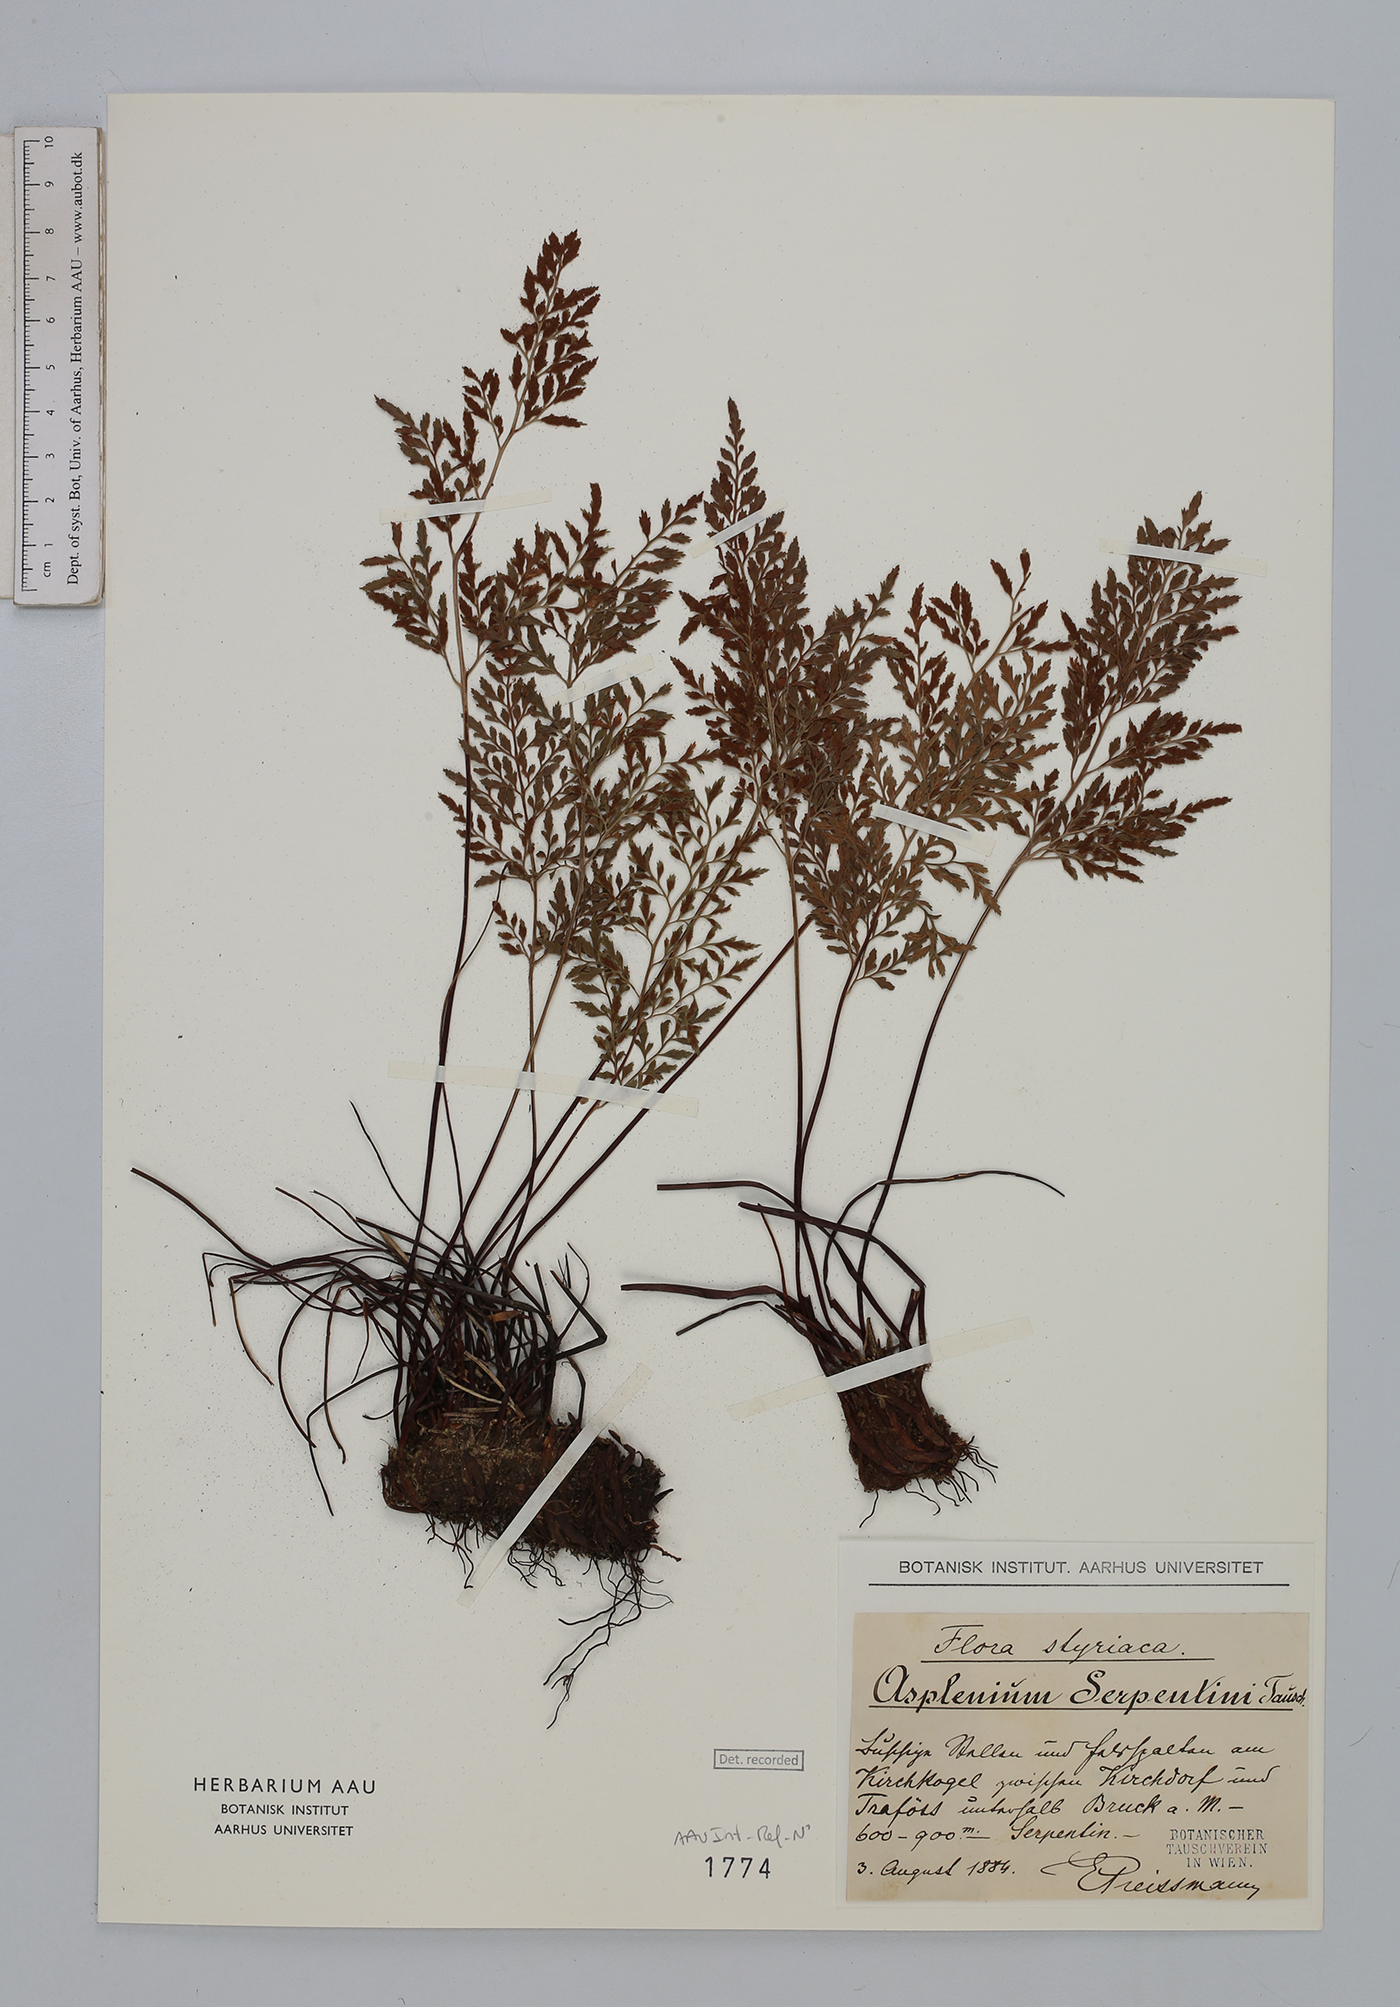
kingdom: Plantae
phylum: Tracheophyta
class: Polypodiopsida
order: Polypodiales
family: Aspleniaceae
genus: Asplenium
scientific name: Asplenium cuneifolium
